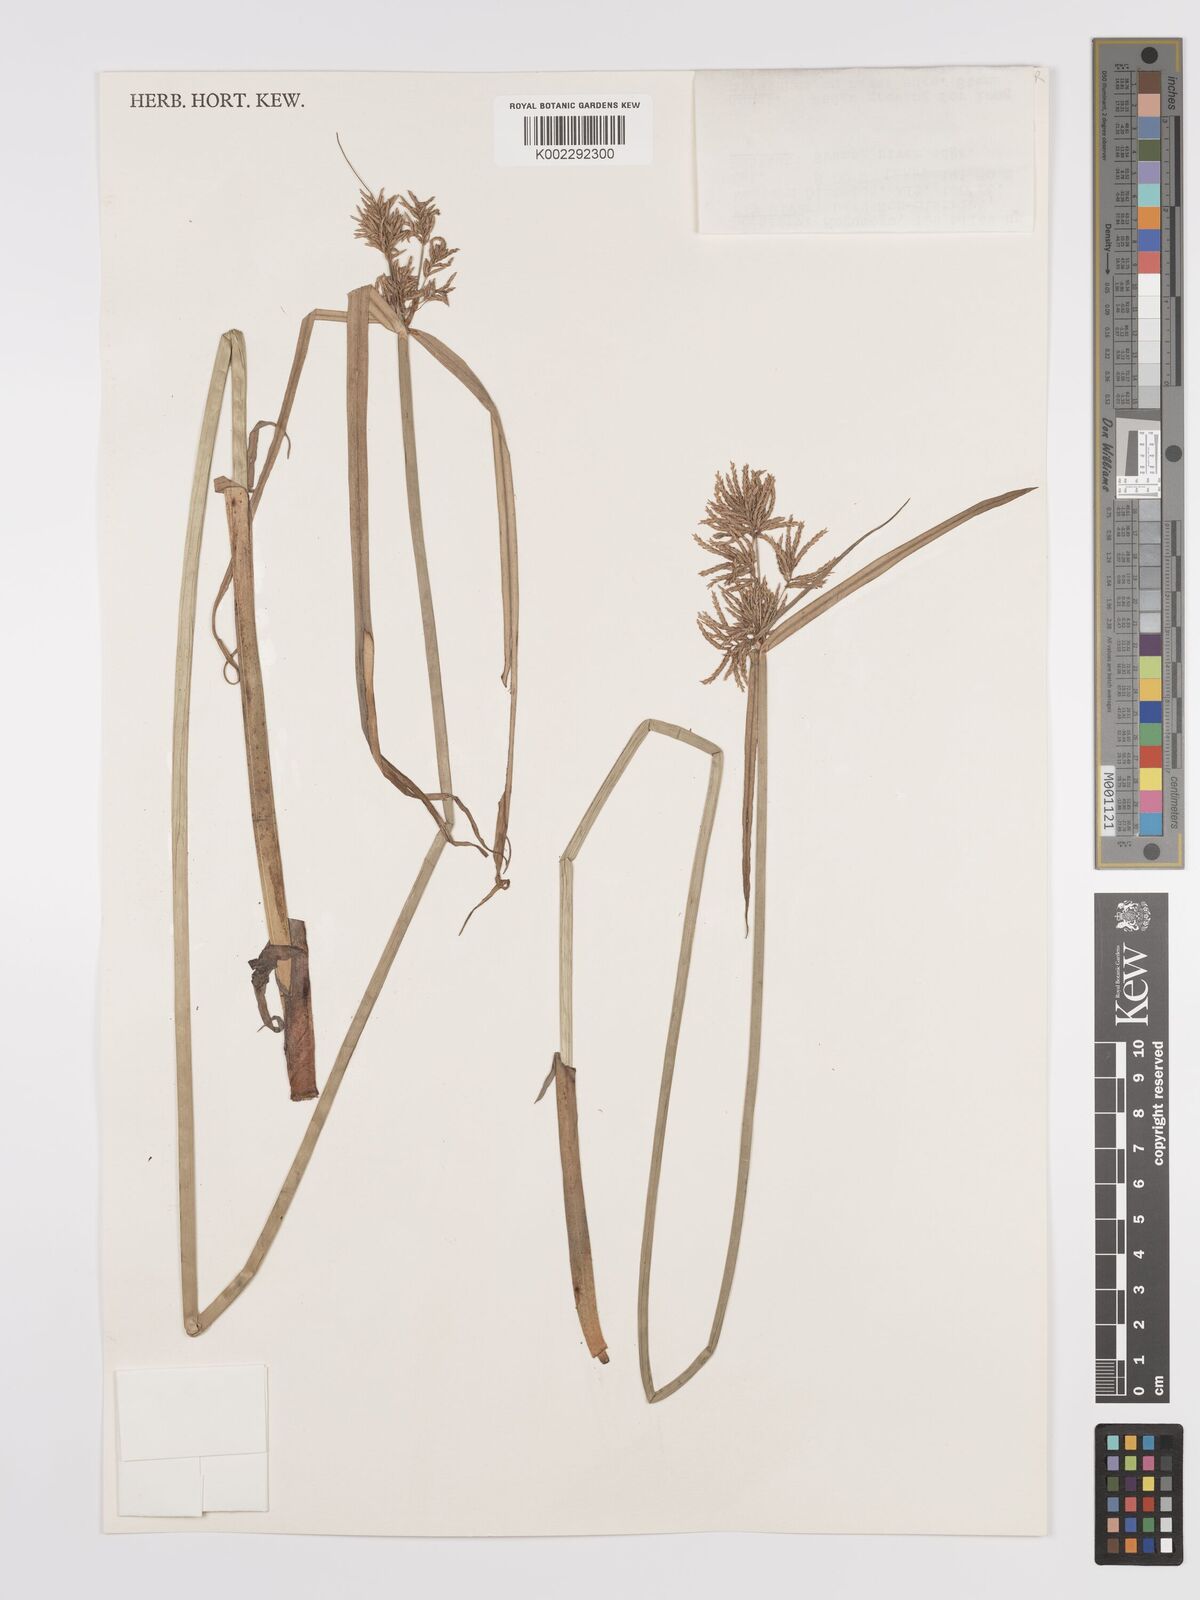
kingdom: Plantae
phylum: Tracheophyta
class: Liliopsida
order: Poales
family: Cyperaceae
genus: Cyperus
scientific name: Cyperus malaccensis
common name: Shichito matgrass
